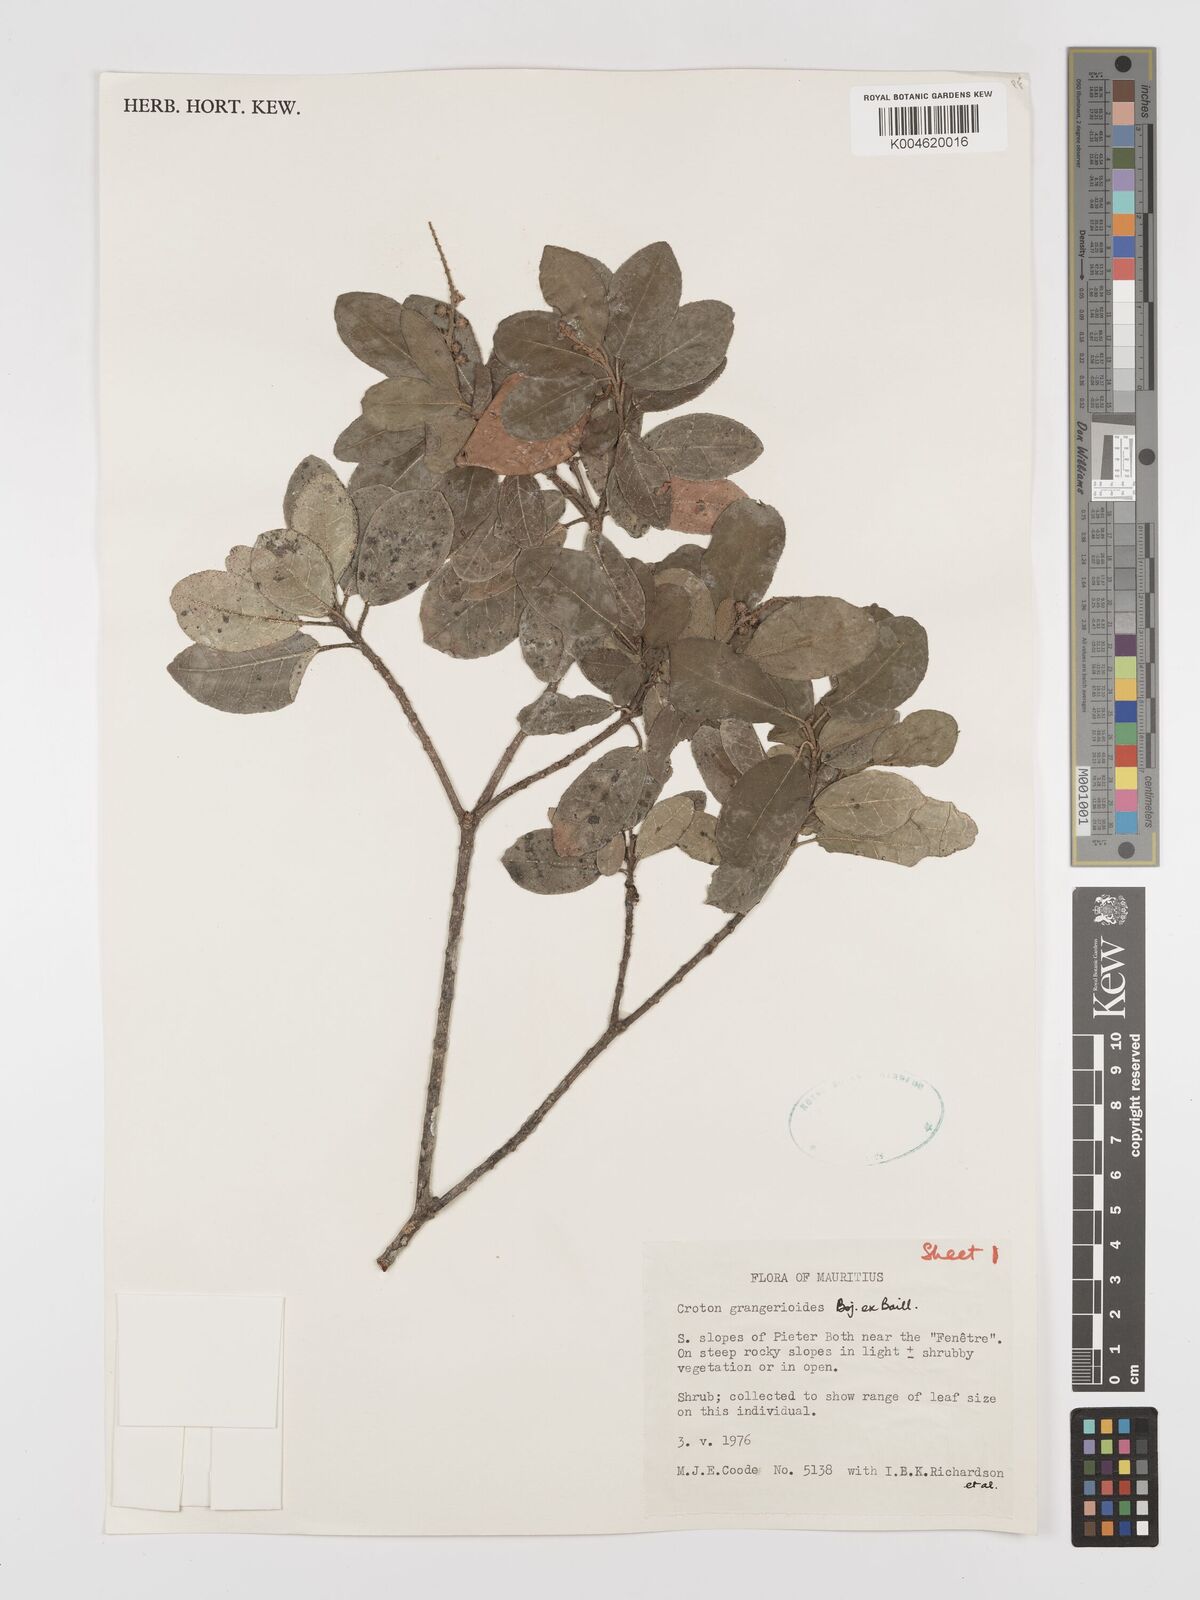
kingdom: Plantae
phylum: Tracheophyta
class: Magnoliopsida
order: Malpighiales
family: Euphorbiaceae
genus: Croton
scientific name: Croton grangerioides
